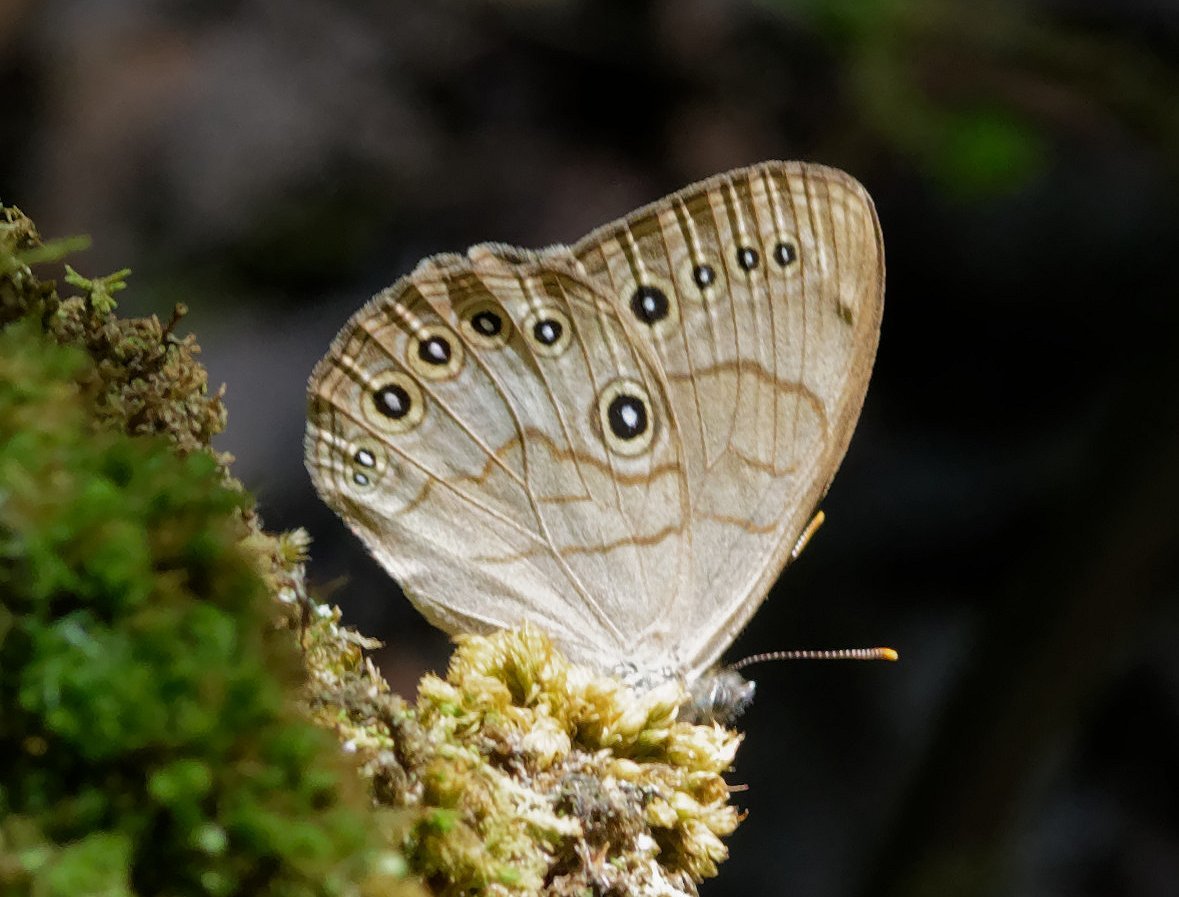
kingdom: Animalia
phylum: Arthropoda
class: Insecta
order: Lepidoptera
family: Nymphalidae
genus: Lethe
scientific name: Lethe eurydice
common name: Appalachian Eyed Brown
